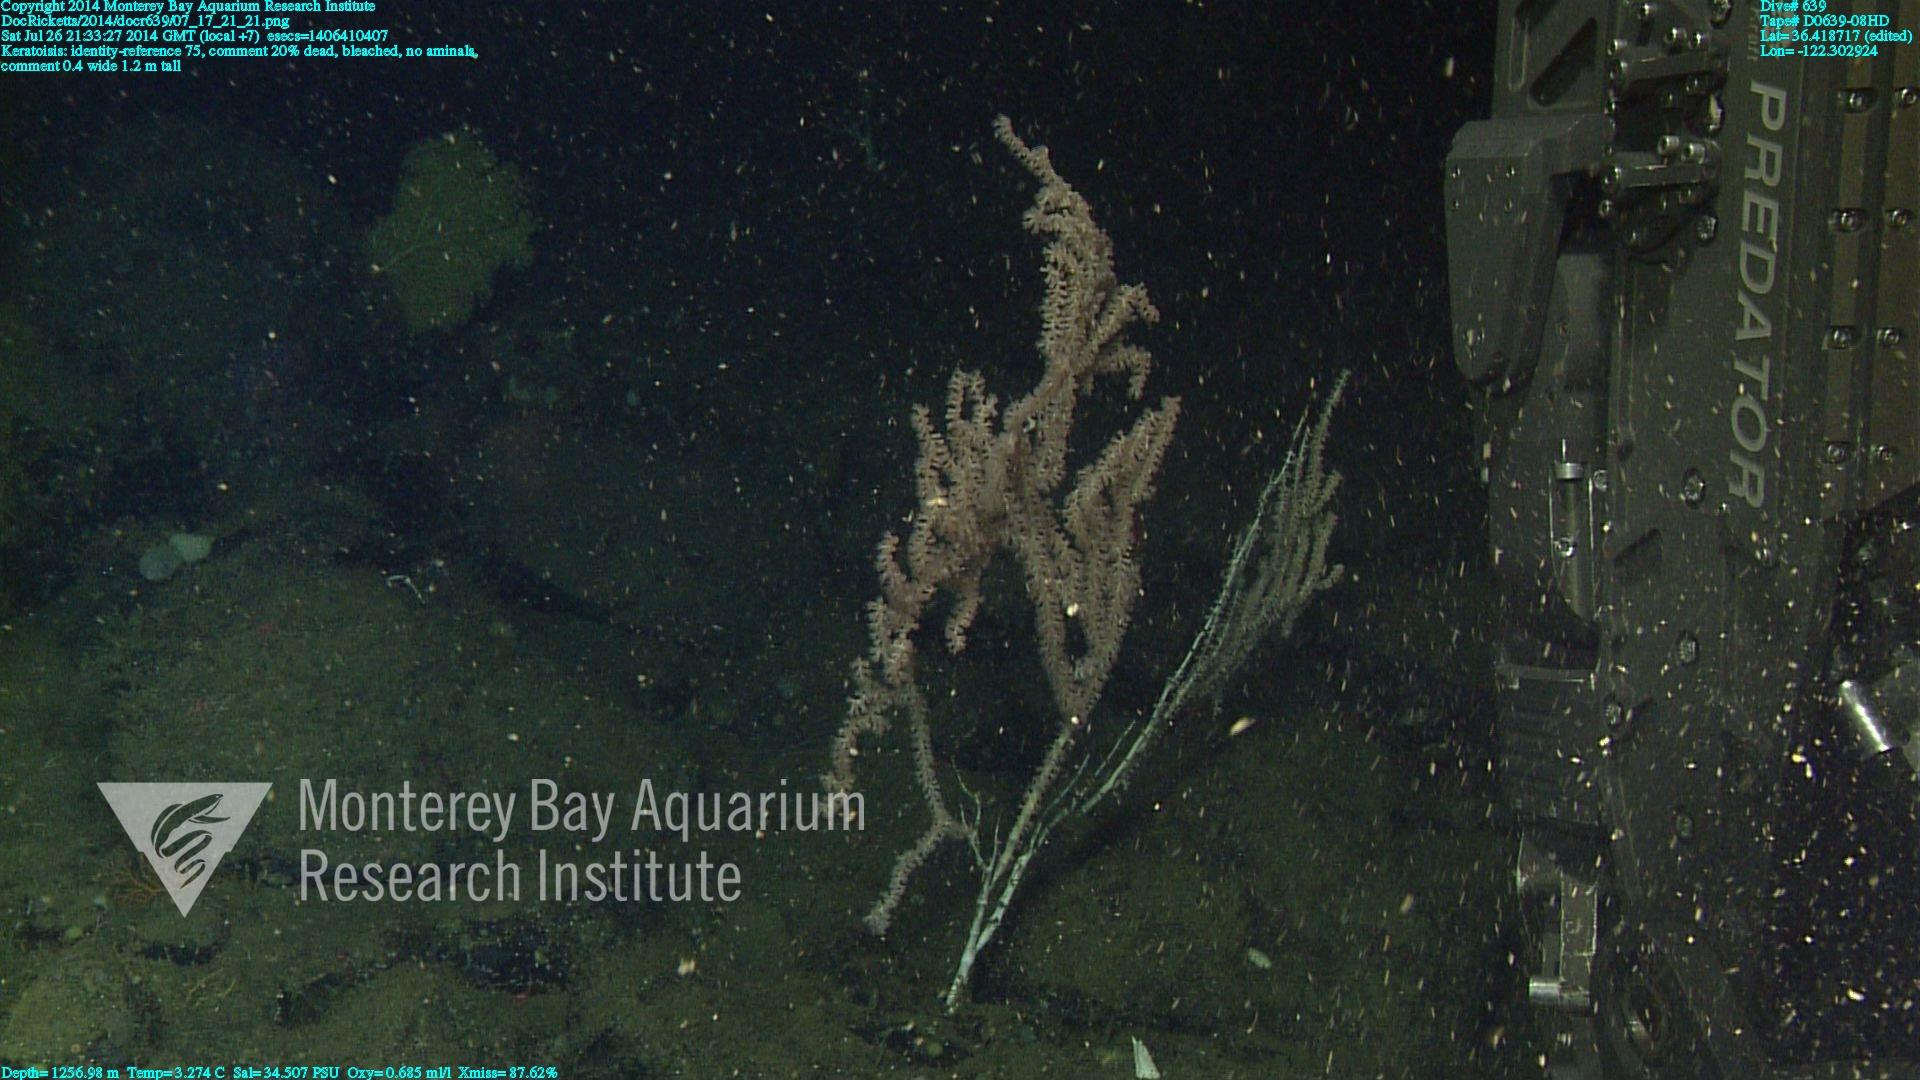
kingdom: Animalia
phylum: Cnidaria
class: Anthozoa
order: Scleralcyonacea
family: Keratoisididae
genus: Keratoisis
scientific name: Keratoisis
